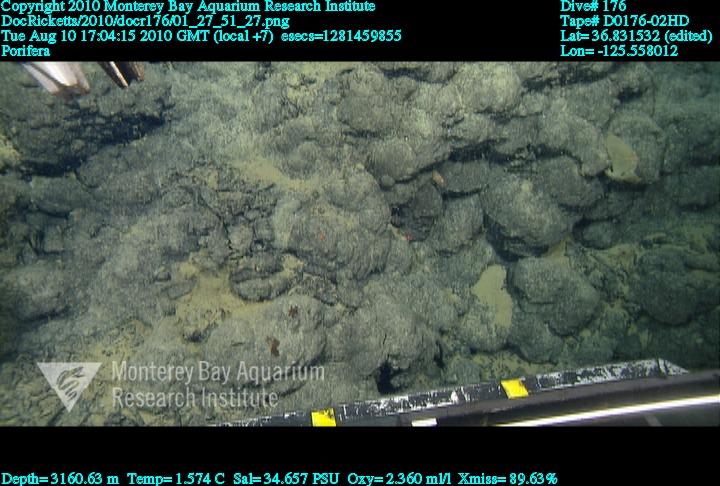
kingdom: Animalia
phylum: Porifera
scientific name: Porifera
